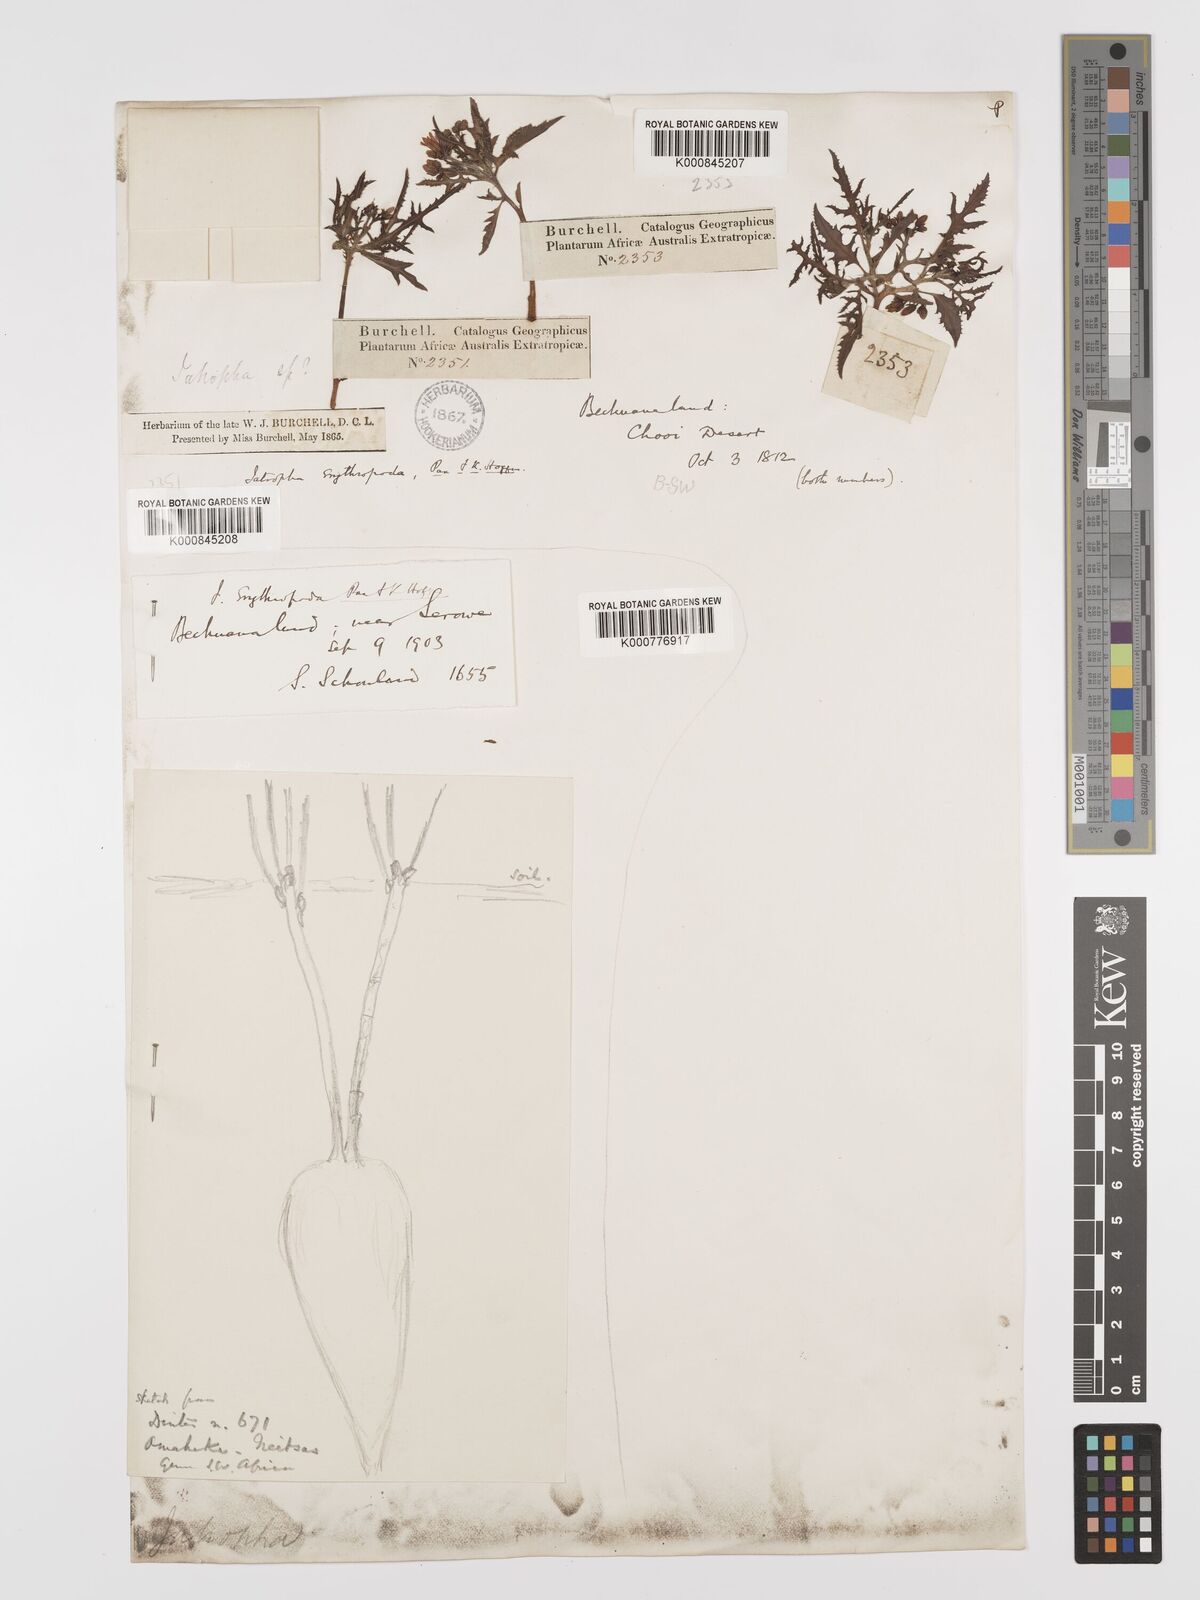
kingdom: Plantae
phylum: Tracheophyta
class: Magnoliopsida
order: Malpighiales
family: Euphorbiaceae
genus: Jatropha
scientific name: Jatropha erythropoda
